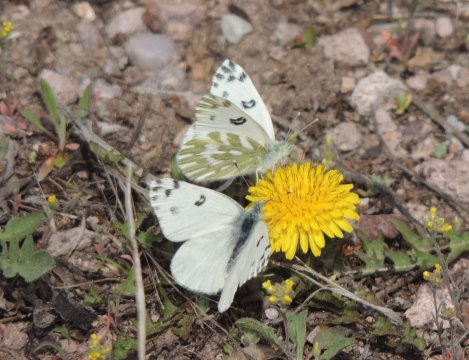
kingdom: Animalia
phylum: Arthropoda
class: Insecta
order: Lepidoptera
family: Pieridae
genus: Pontia
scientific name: Pontia beckerii
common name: Becker's White
